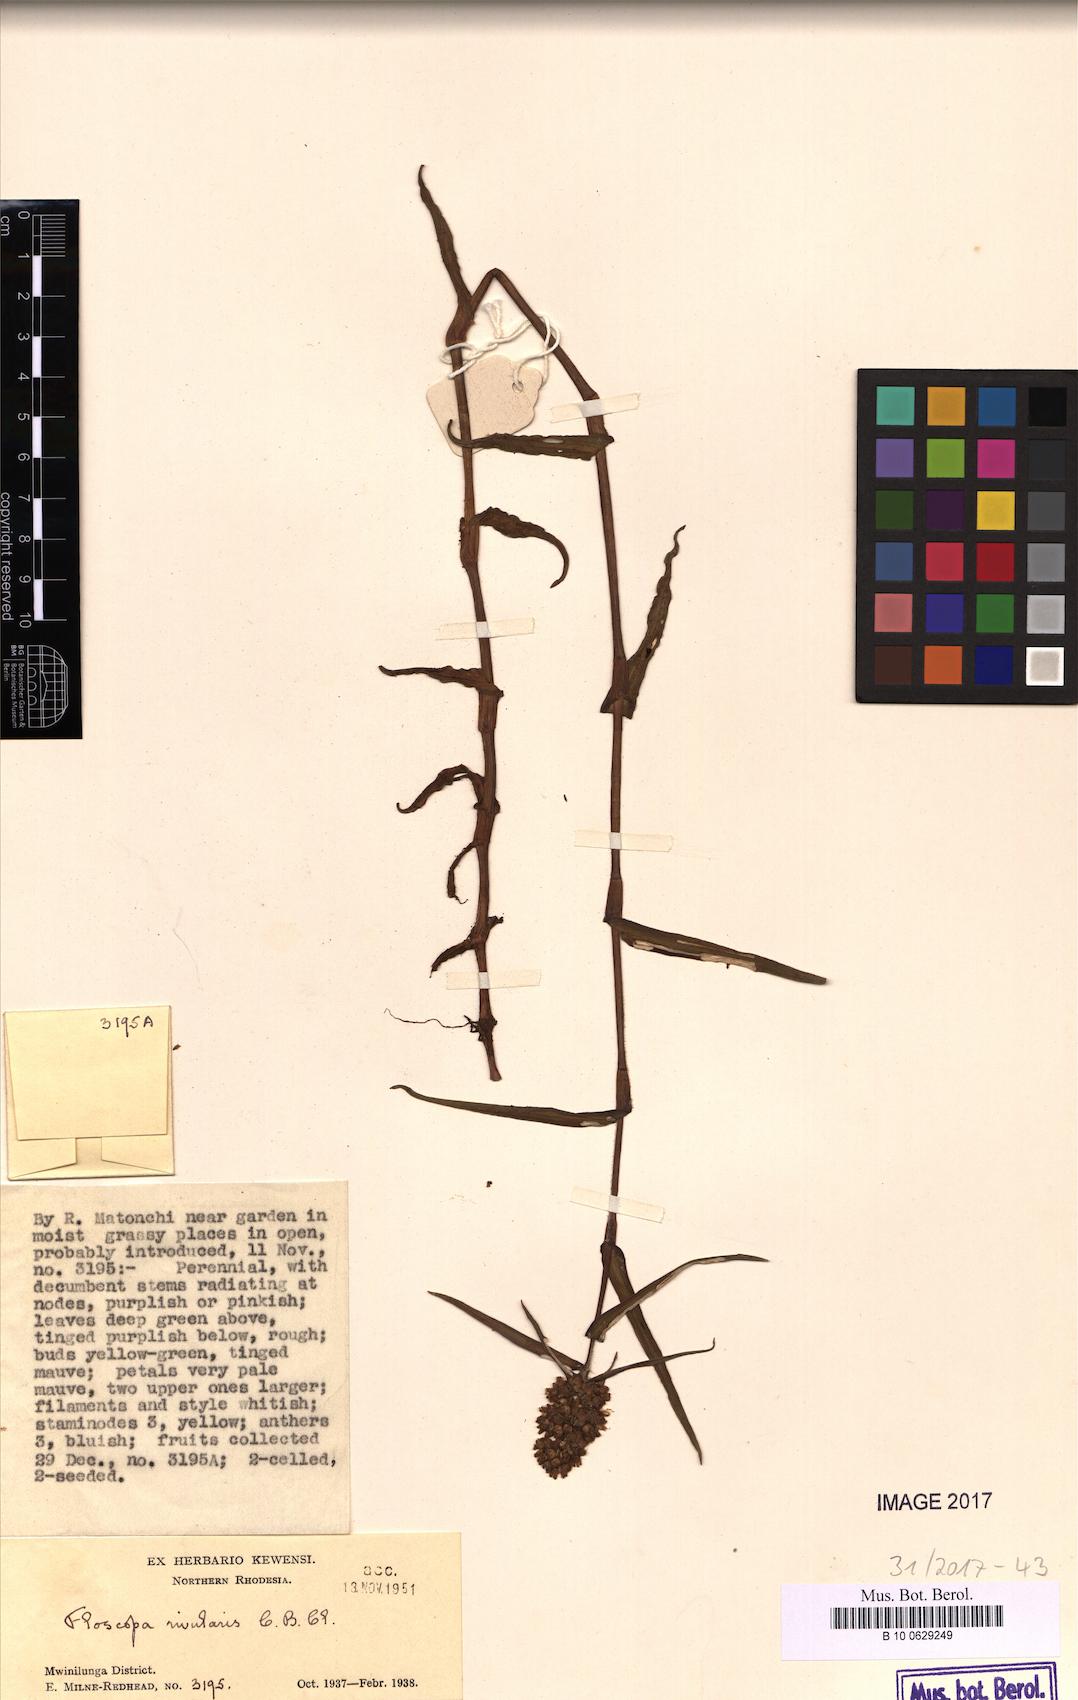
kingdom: Plantae
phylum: Tracheophyta
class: Liliopsida
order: Commelinales
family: Commelinaceae
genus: Floscopa
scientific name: Floscopa glomerata
